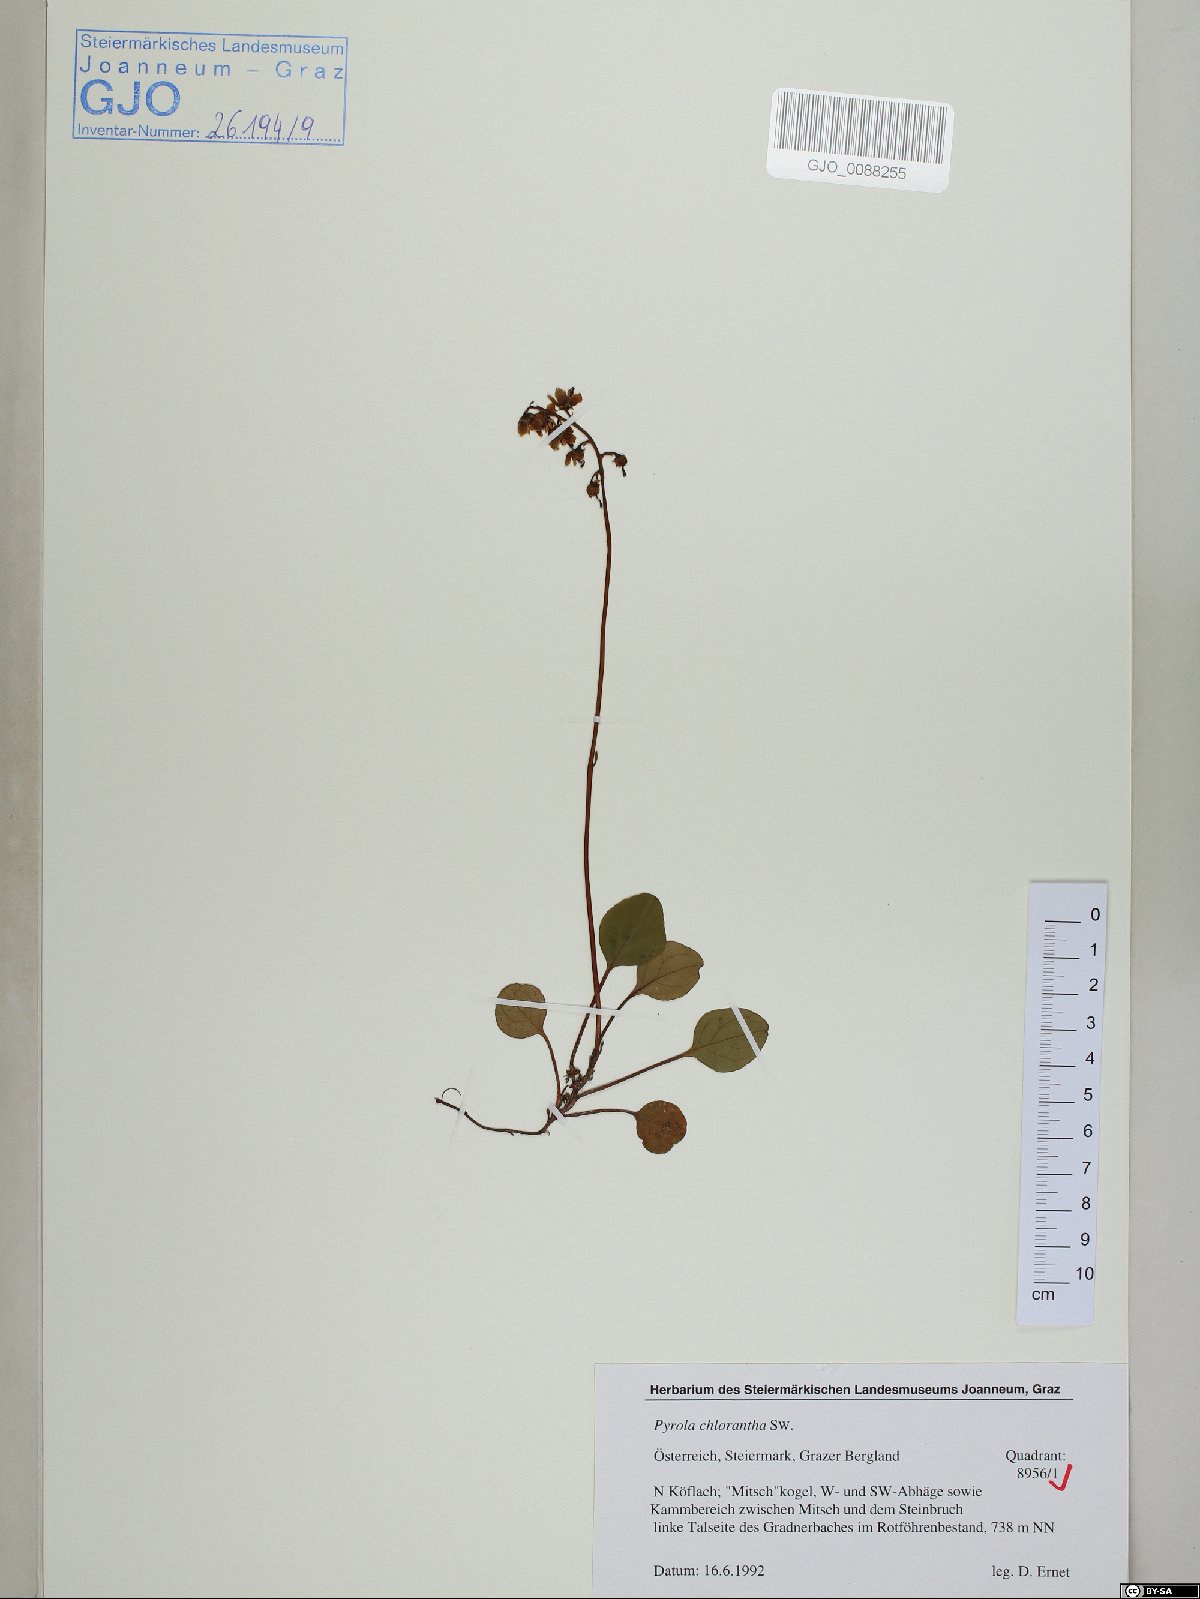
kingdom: Plantae
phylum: Tracheophyta
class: Magnoliopsida
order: Ericales
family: Ericaceae
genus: Pyrola
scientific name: Pyrola chlorantha
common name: Green wintergreen
